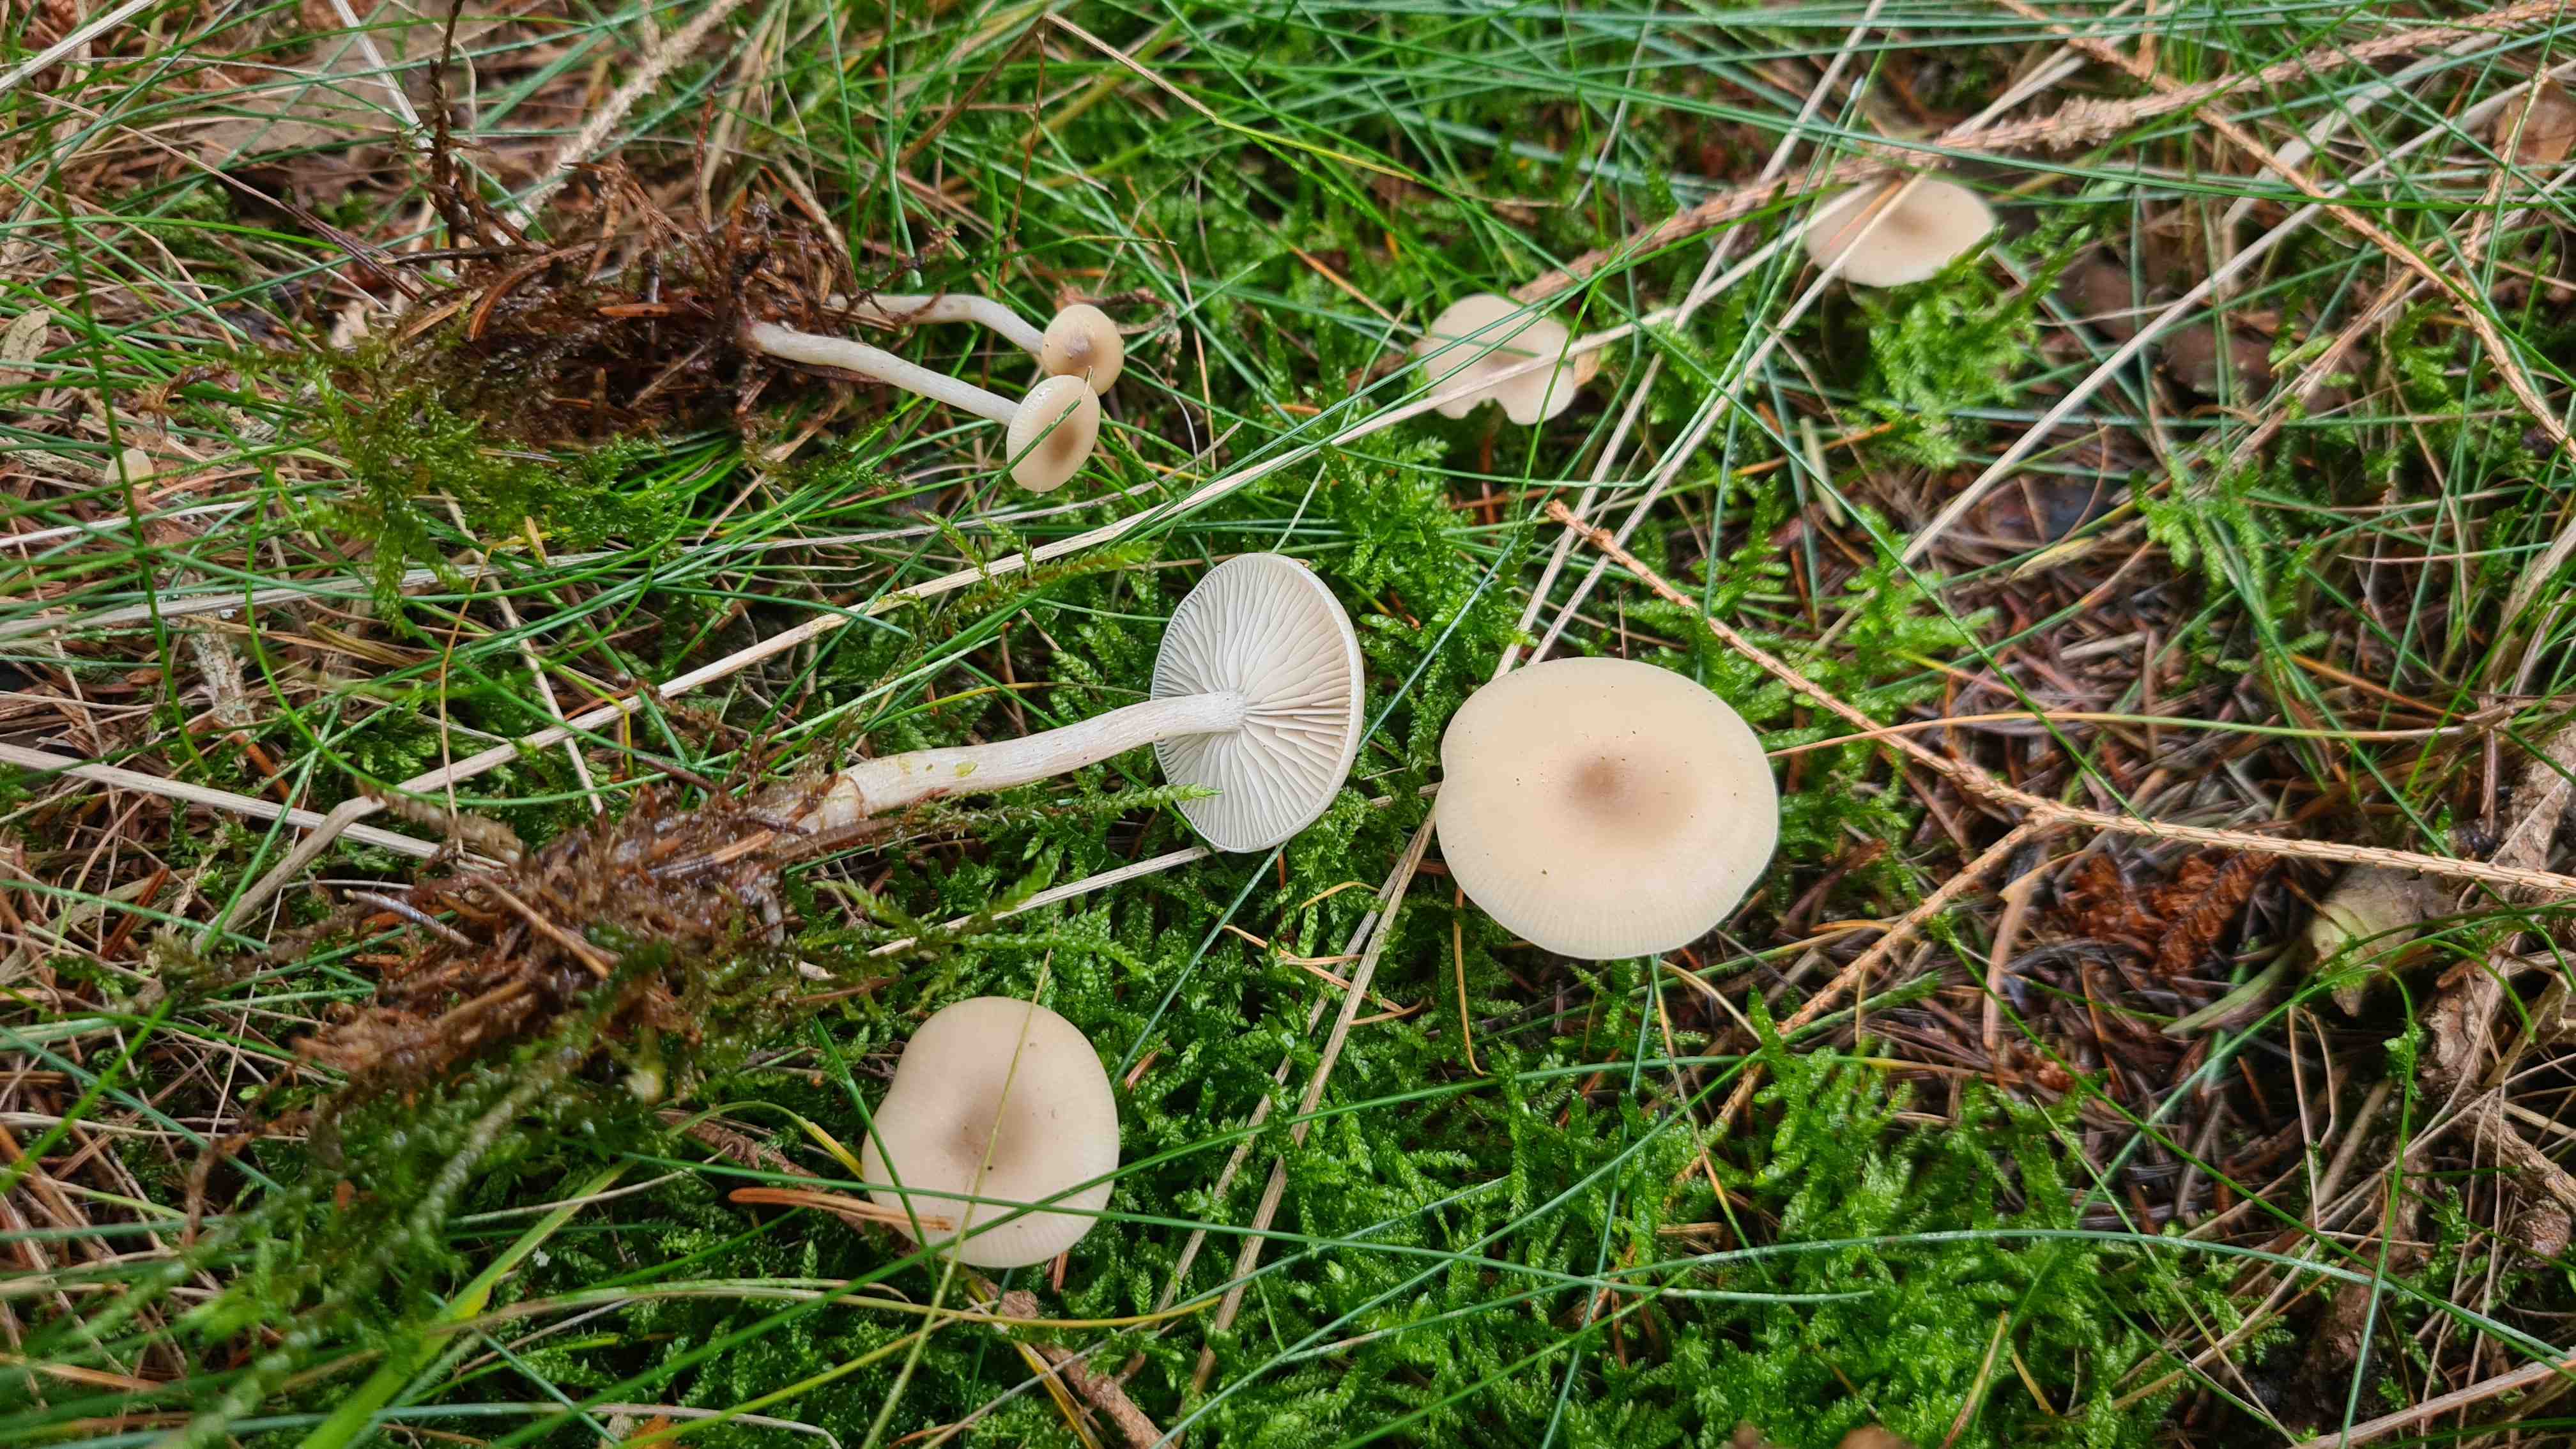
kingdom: Fungi
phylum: Basidiomycota
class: Agaricomycetes
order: Agaricales
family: Tricholomataceae
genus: Clitocybe
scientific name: Clitocybe metachroa
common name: grå tragthat
